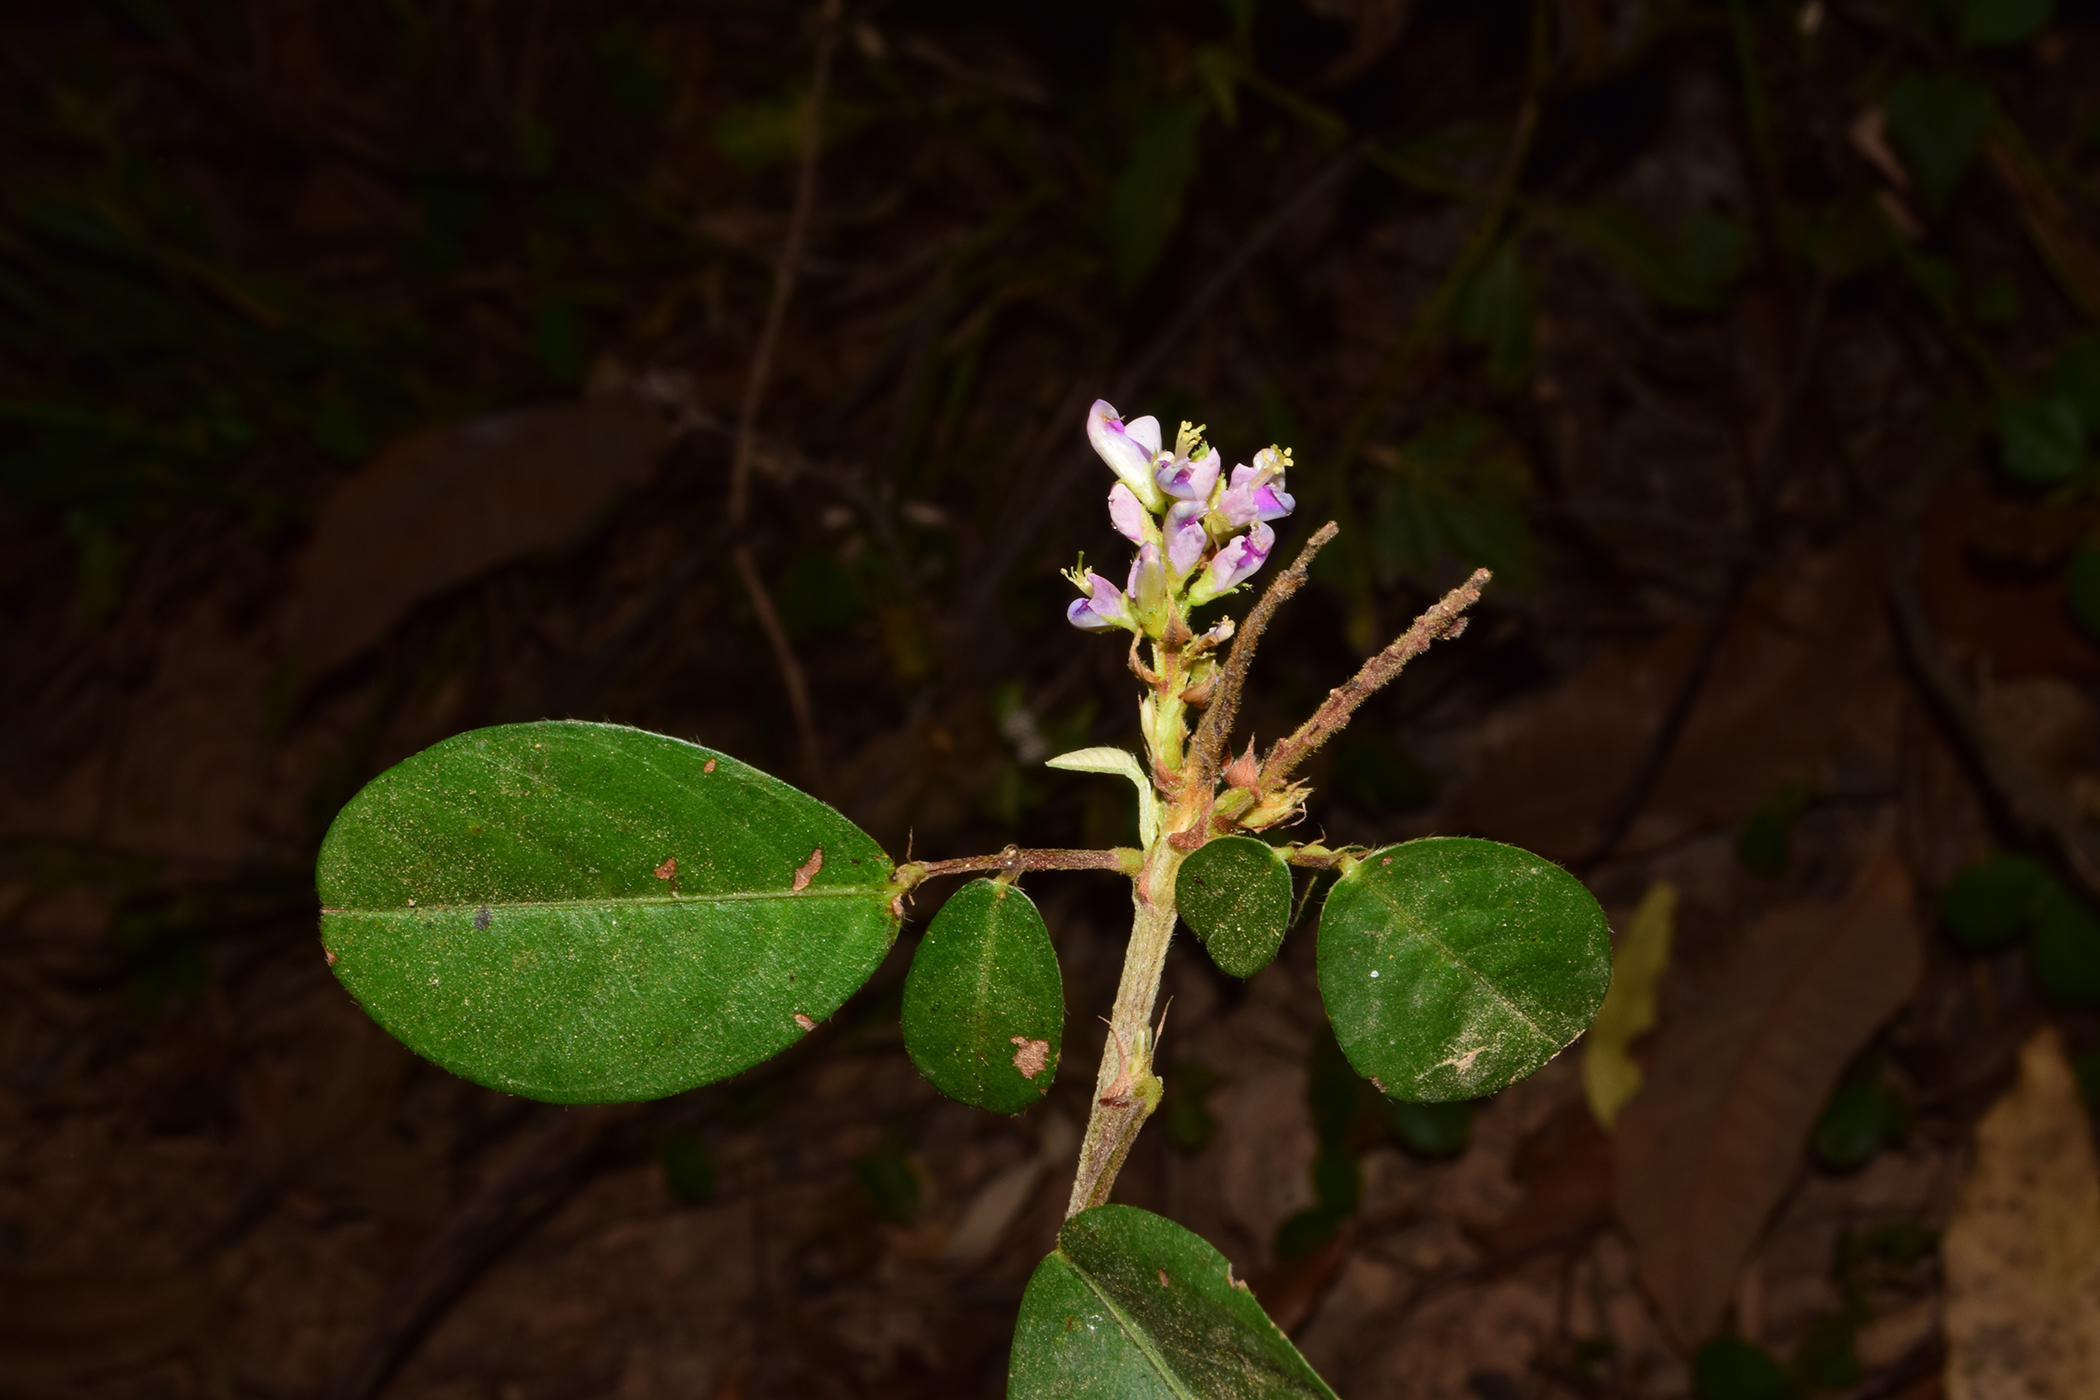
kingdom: Plantae
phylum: Tracheophyta
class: Magnoliopsida
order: Fabales
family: Fabaceae
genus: Grona
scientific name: Grona heterocarpos
